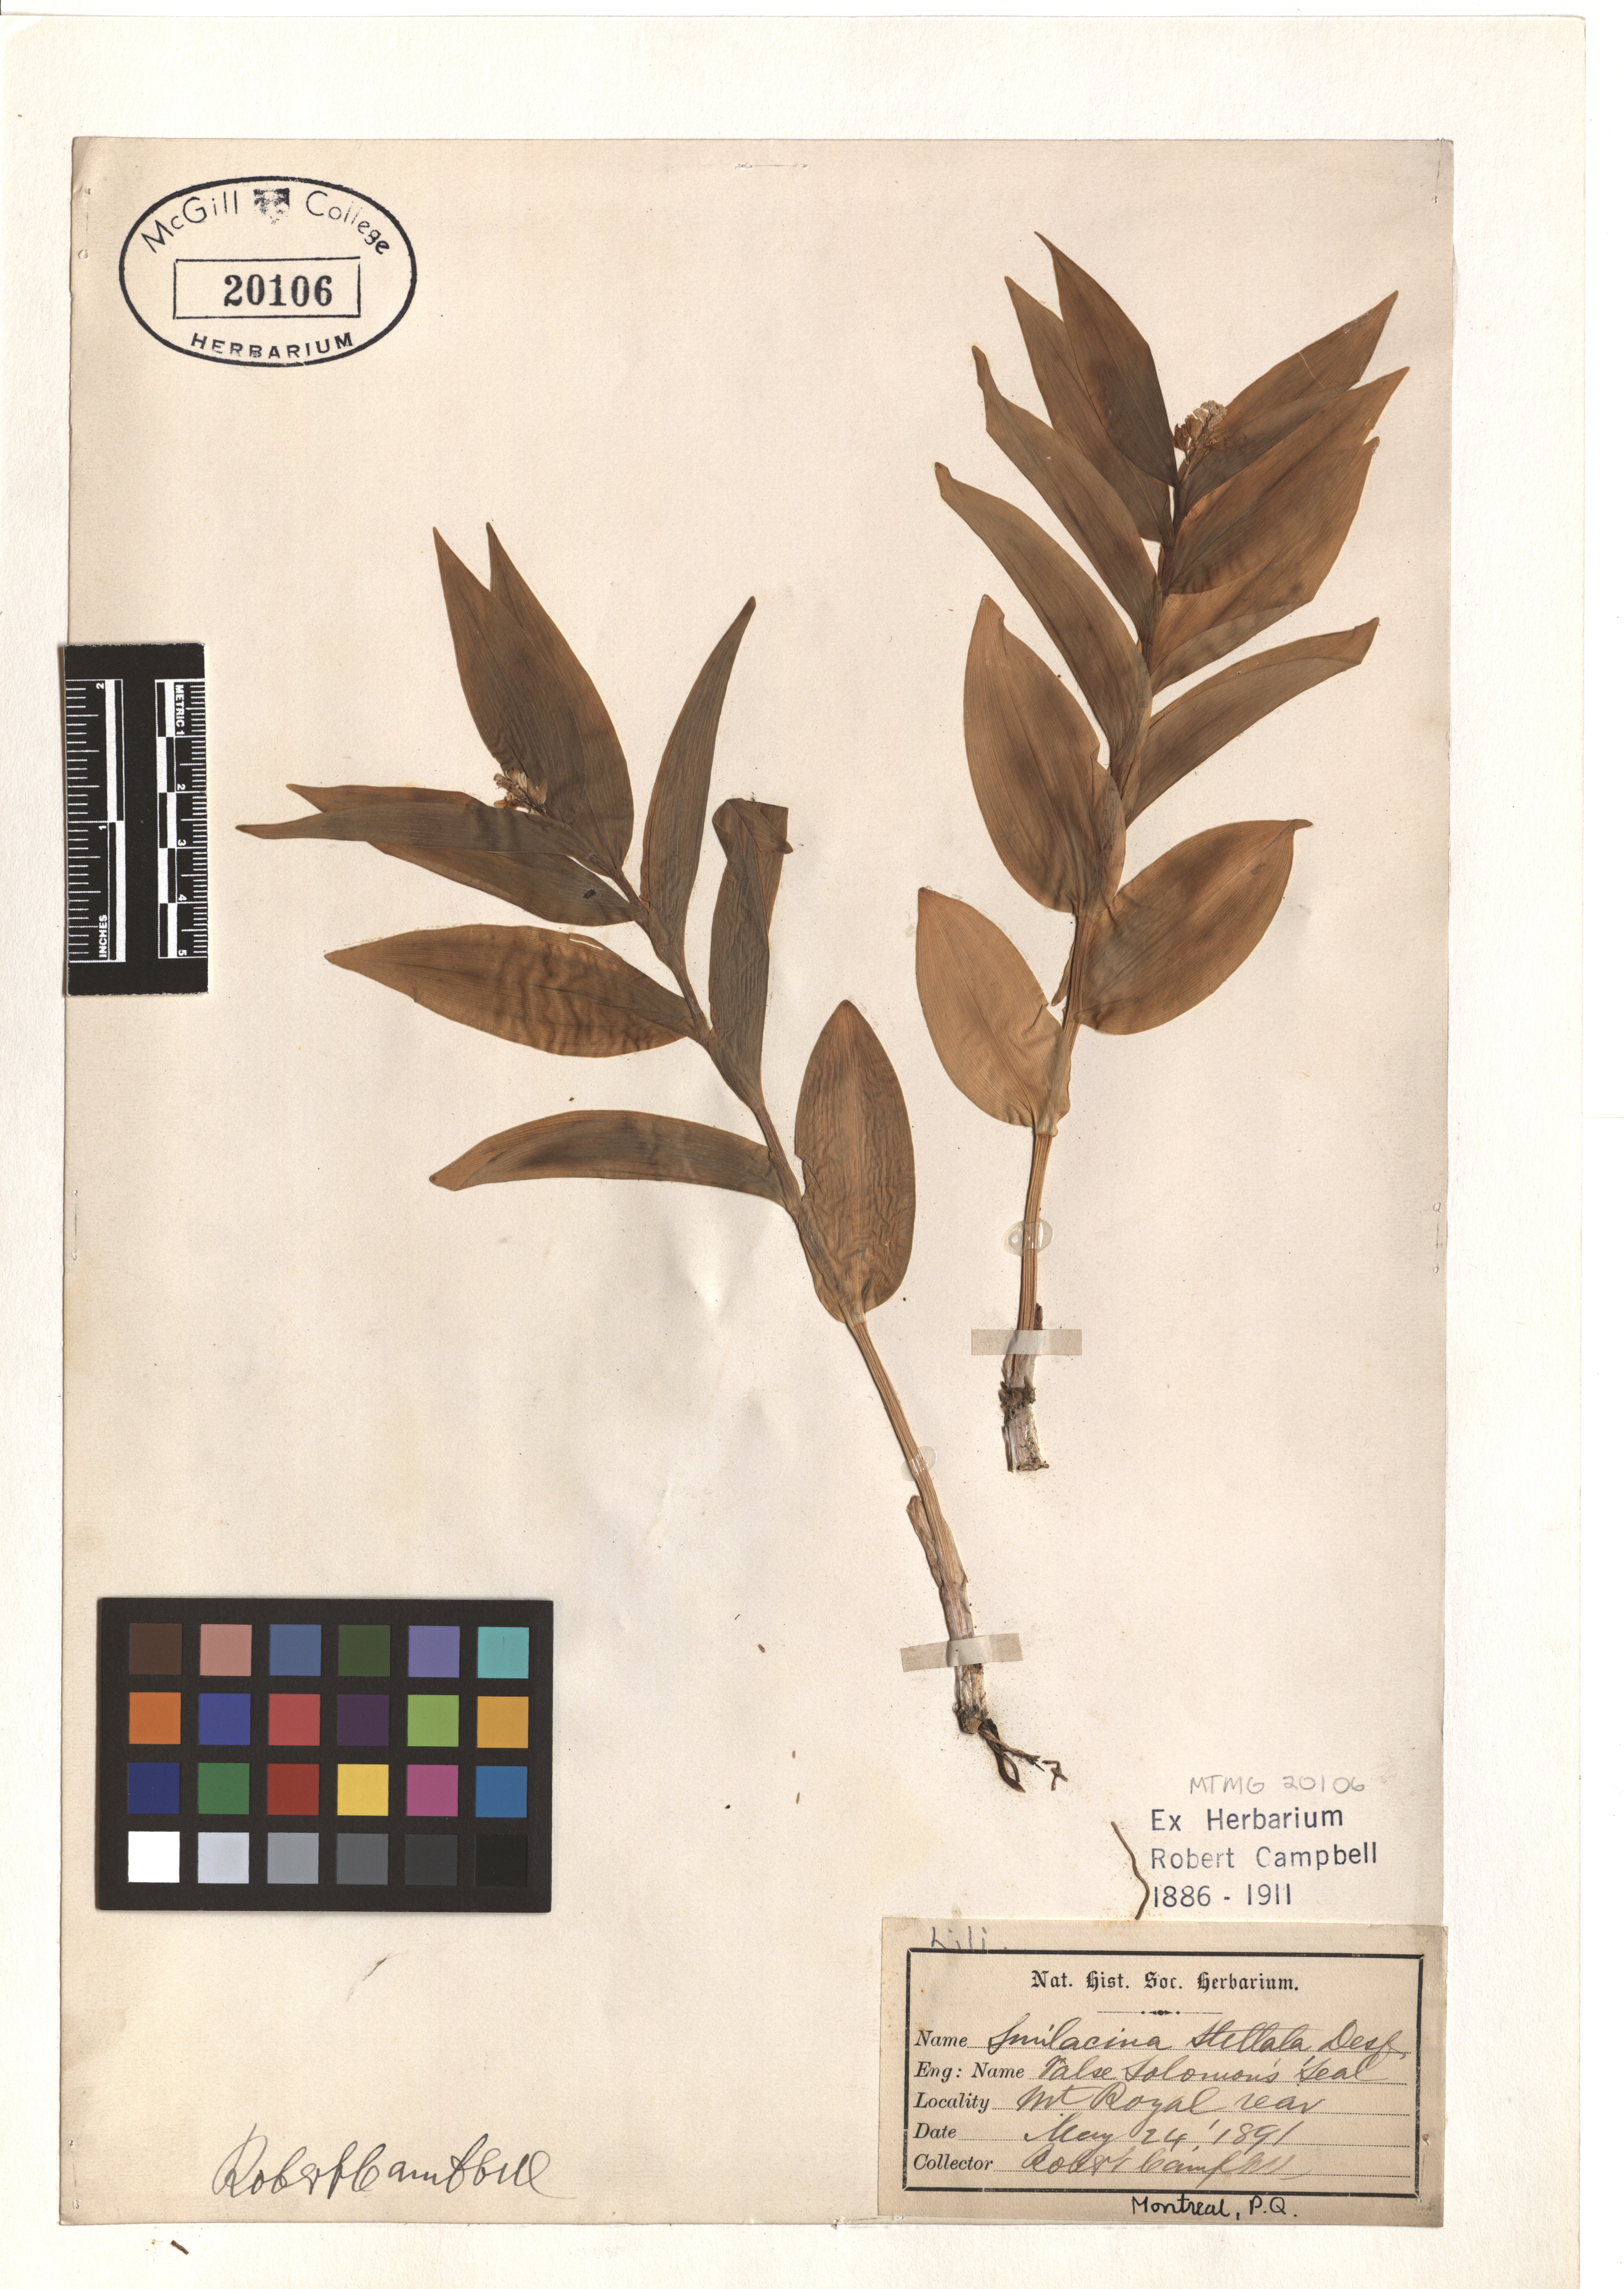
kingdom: Plantae
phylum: Tracheophyta
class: Liliopsida
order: Asparagales
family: Asparagaceae
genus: Maianthemum
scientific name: Maianthemum stellatum
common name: Little false solomon's seal
